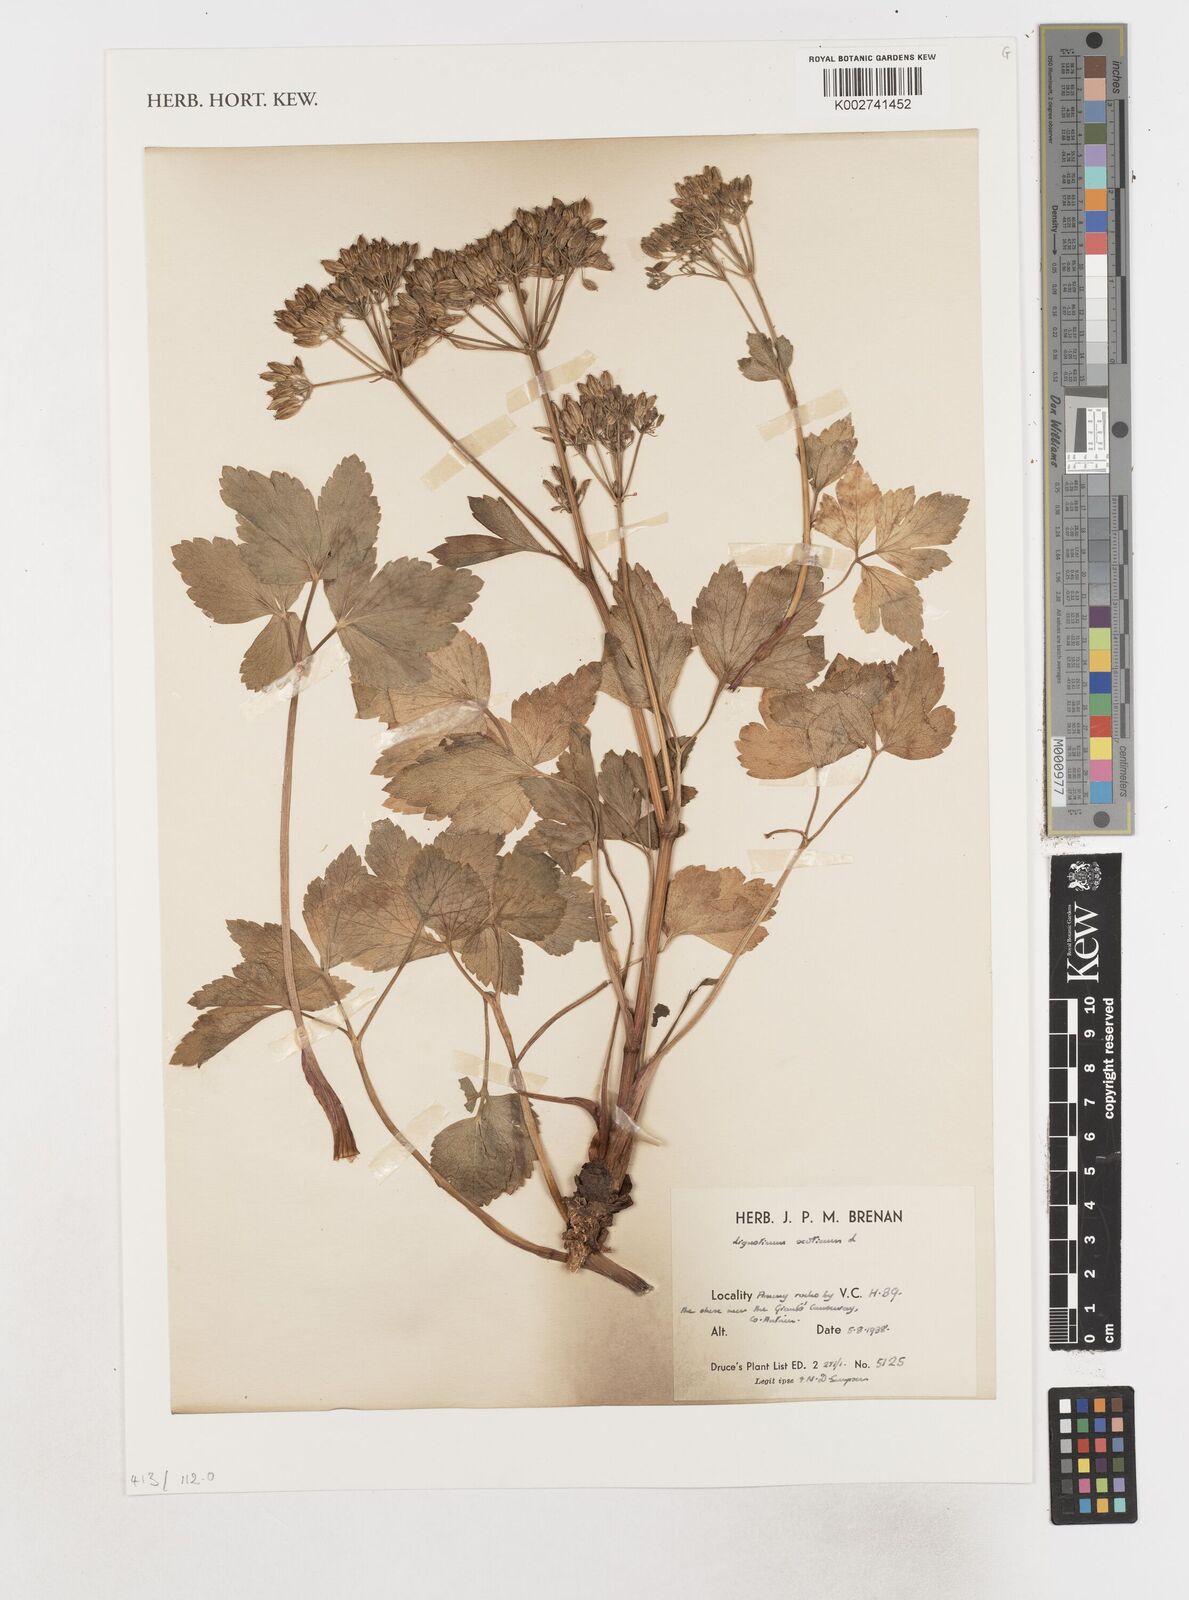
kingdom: Plantae
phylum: Tracheophyta
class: Magnoliopsida
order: Apiales
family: Apiaceae
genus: Ligusticum
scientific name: Ligusticum scothicum
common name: Beach lovage
